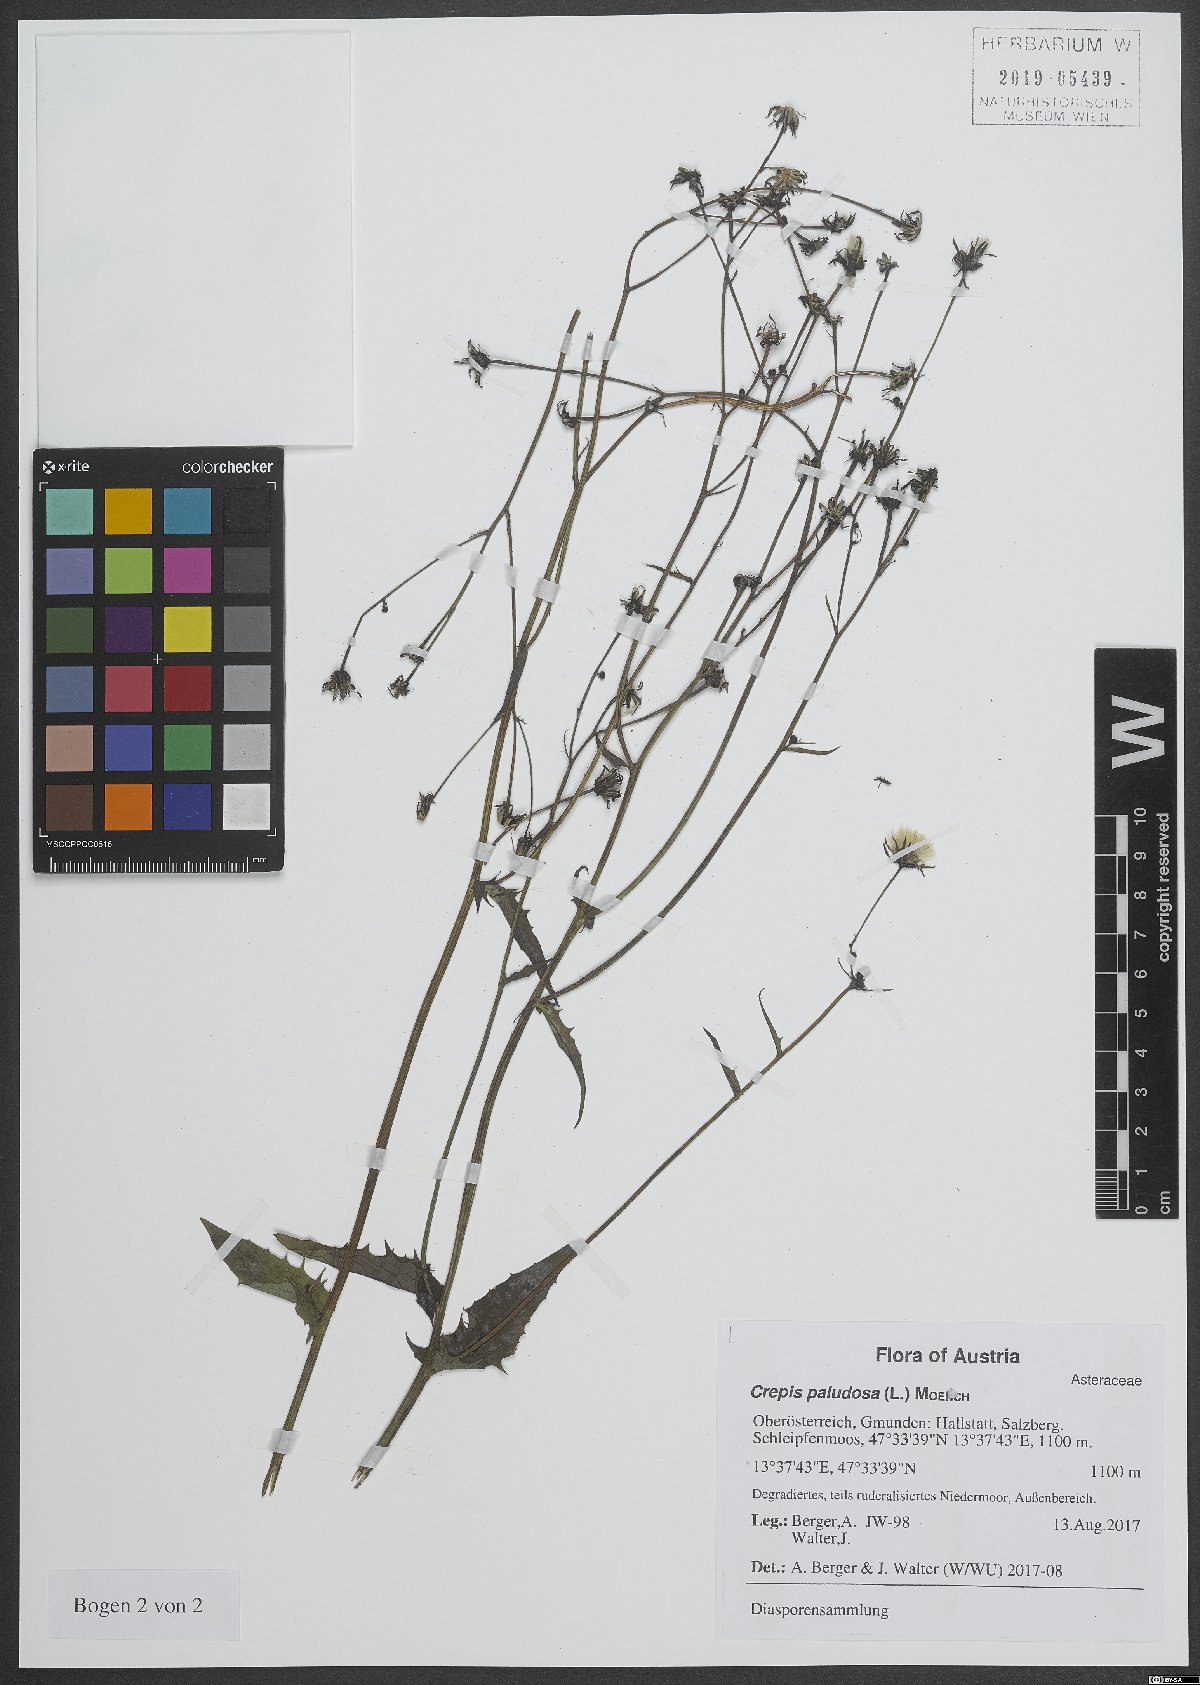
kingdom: Plantae
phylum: Tracheophyta
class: Magnoliopsida
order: Asterales
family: Asteraceae
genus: Crepis
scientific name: Crepis paludosa
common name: Marsh hawk's-beard
